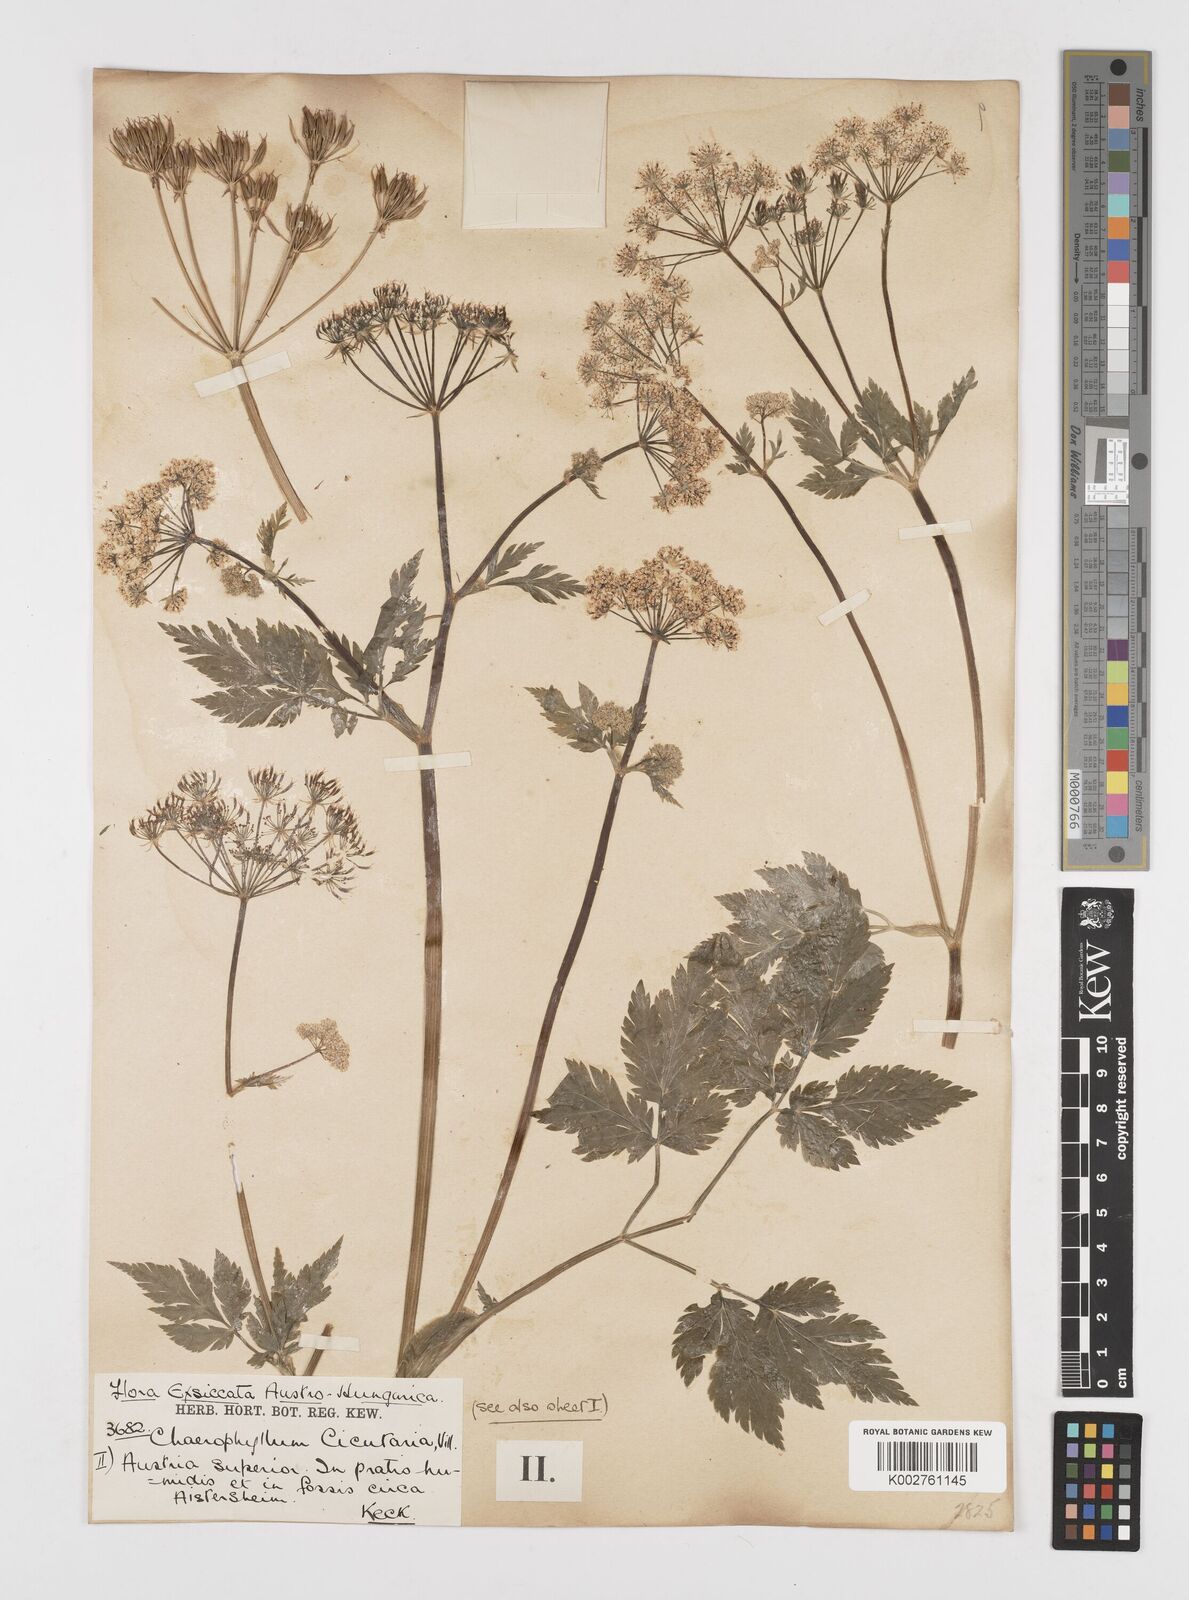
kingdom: Plantae
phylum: Tracheophyta
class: Magnoliopsida
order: Apiales
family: Apiaceae
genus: Chaerophyllum
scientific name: Chaerophyllum hirsutum
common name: Hairy chervil
